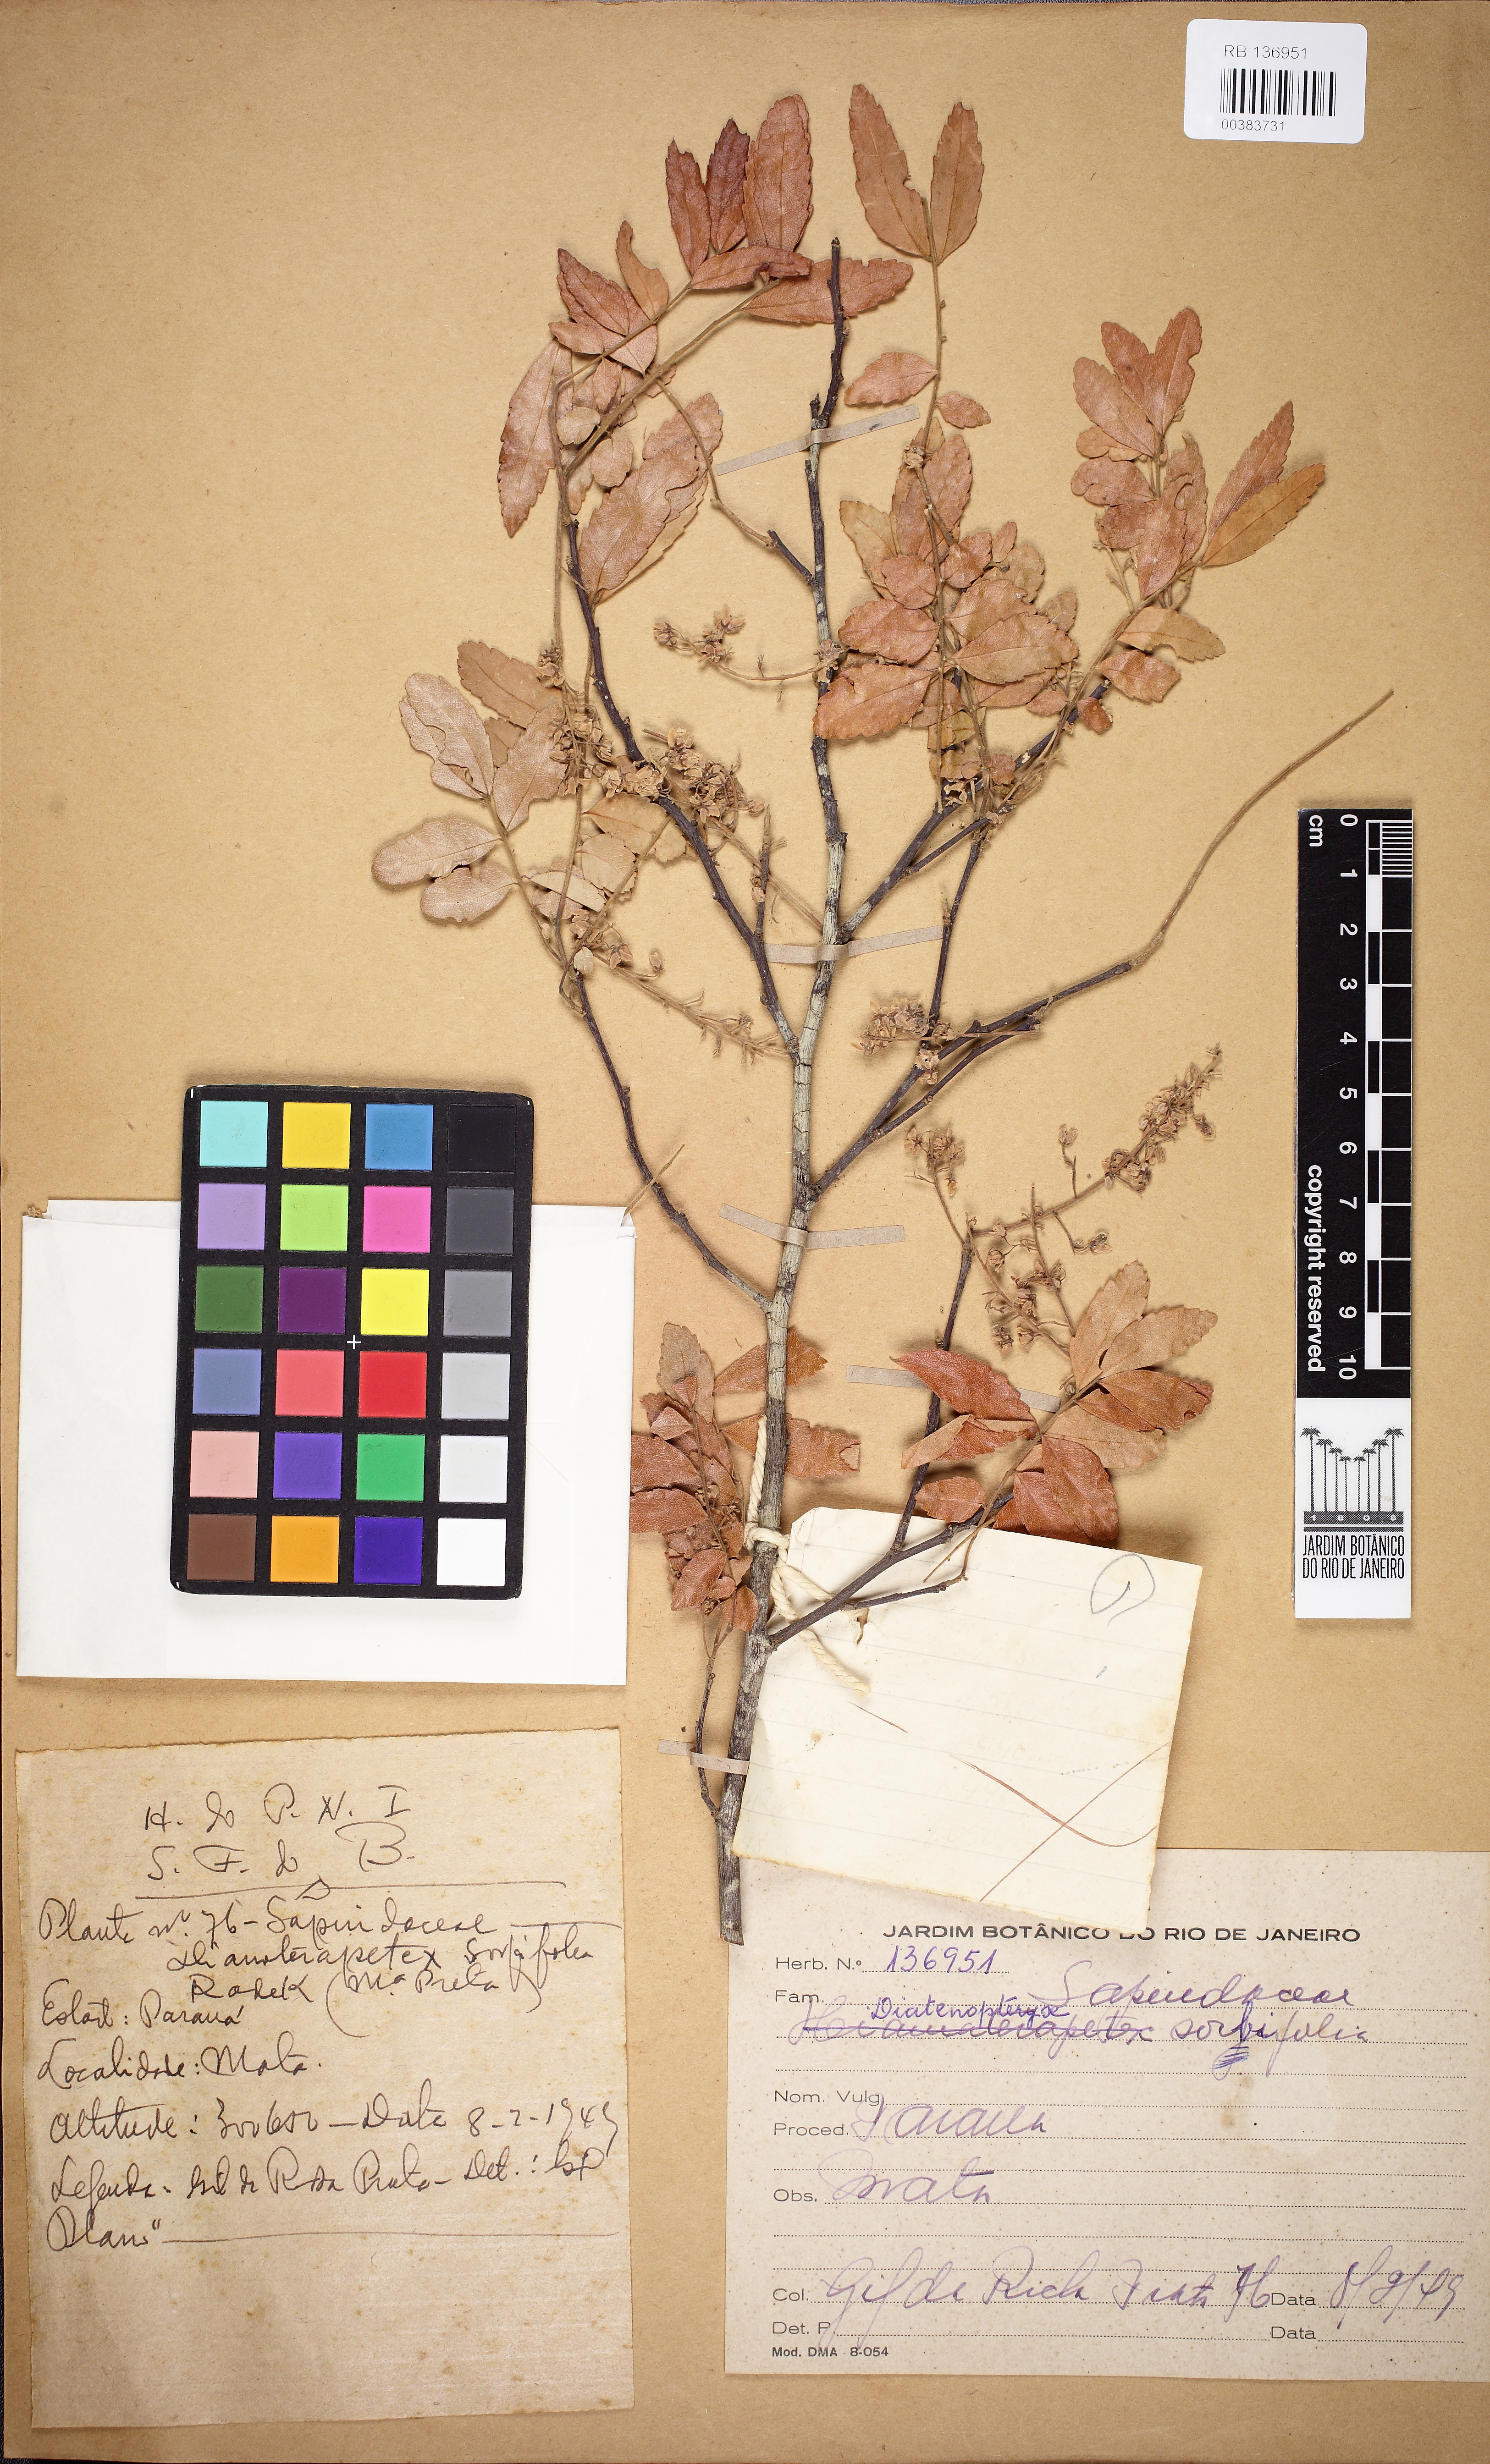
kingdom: Plantae
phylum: Tracheophyta
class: Magnoliopsida
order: Sapindales
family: Sapindaceae
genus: Diatenopteryx
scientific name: Diatenopteryx sorbifolia
